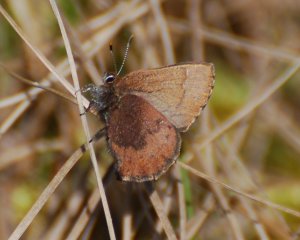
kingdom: Animalia
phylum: Arthropoda
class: Insecta
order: Lepidoptera
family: Lycaenidae
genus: Incisalia
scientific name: Incisalia irioides
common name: Brown Elfin
